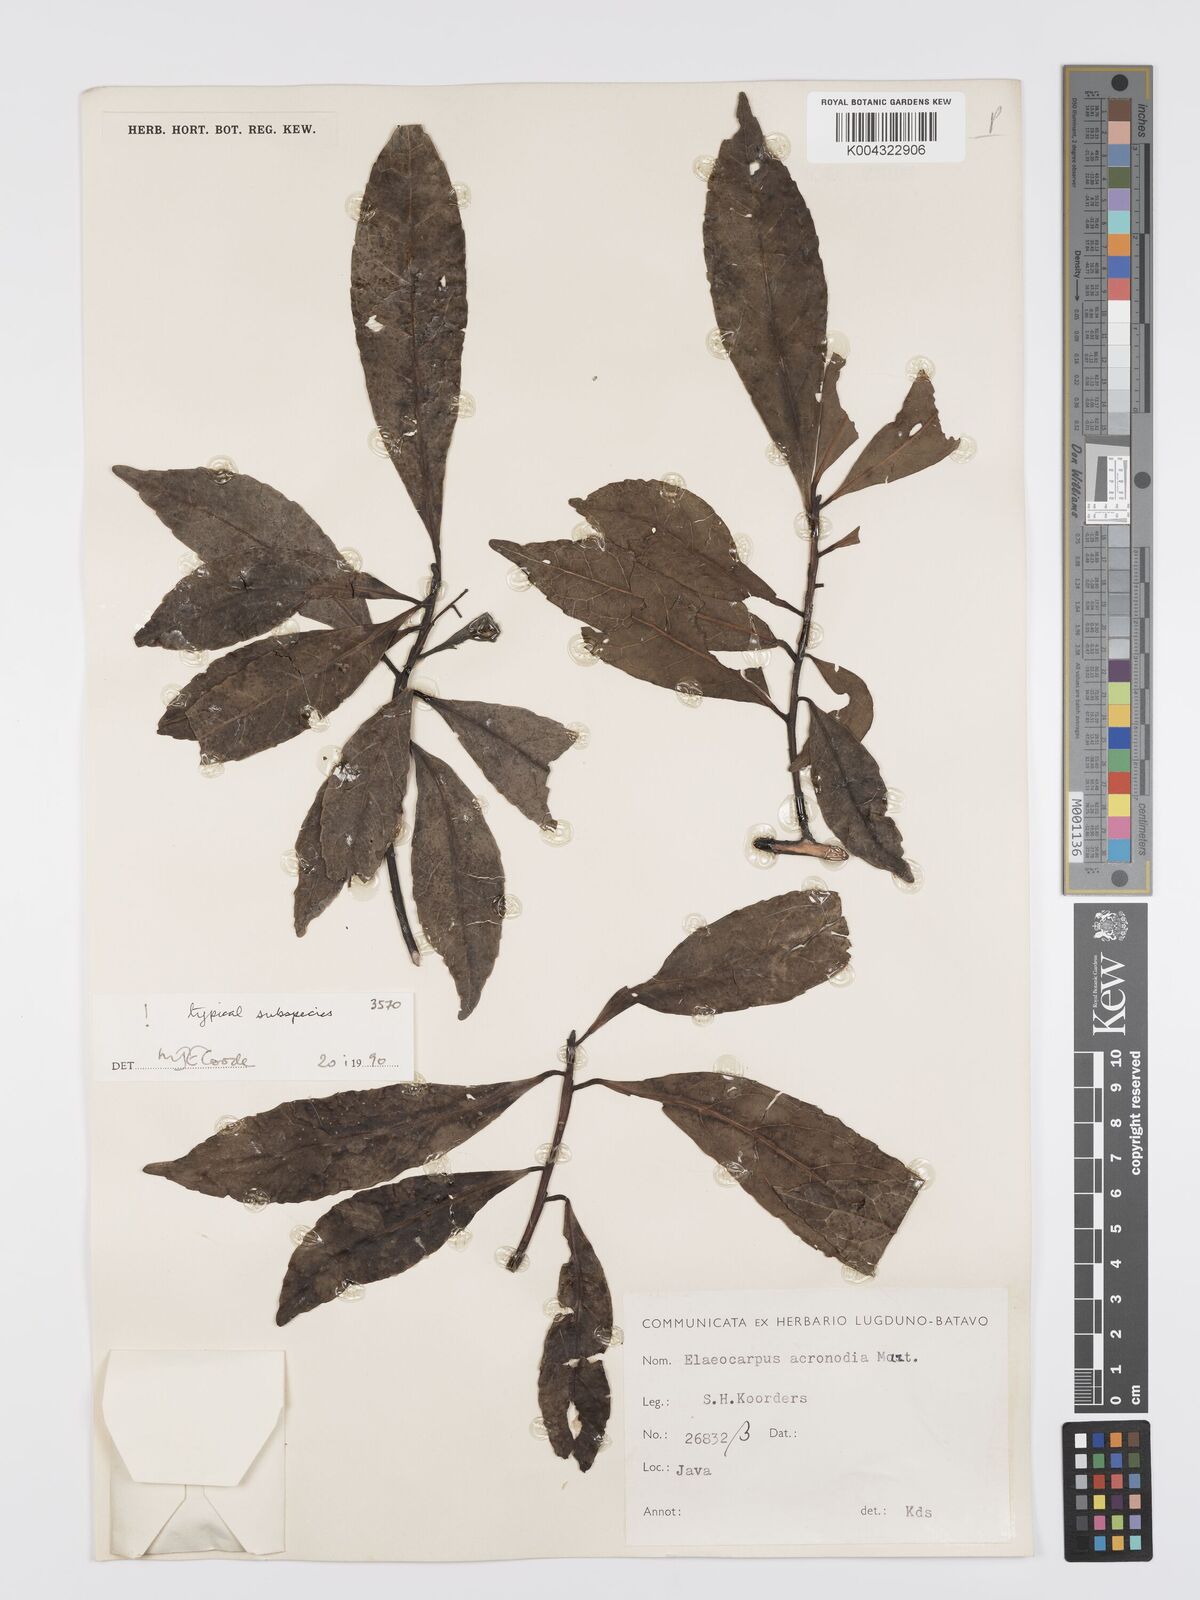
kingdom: Plantae
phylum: Tracheophyta
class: Magnoliopsida
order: Oxalidales
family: Elaeocarpaceae
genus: Elaeocarpus
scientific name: Elaeocarpus acronodia
